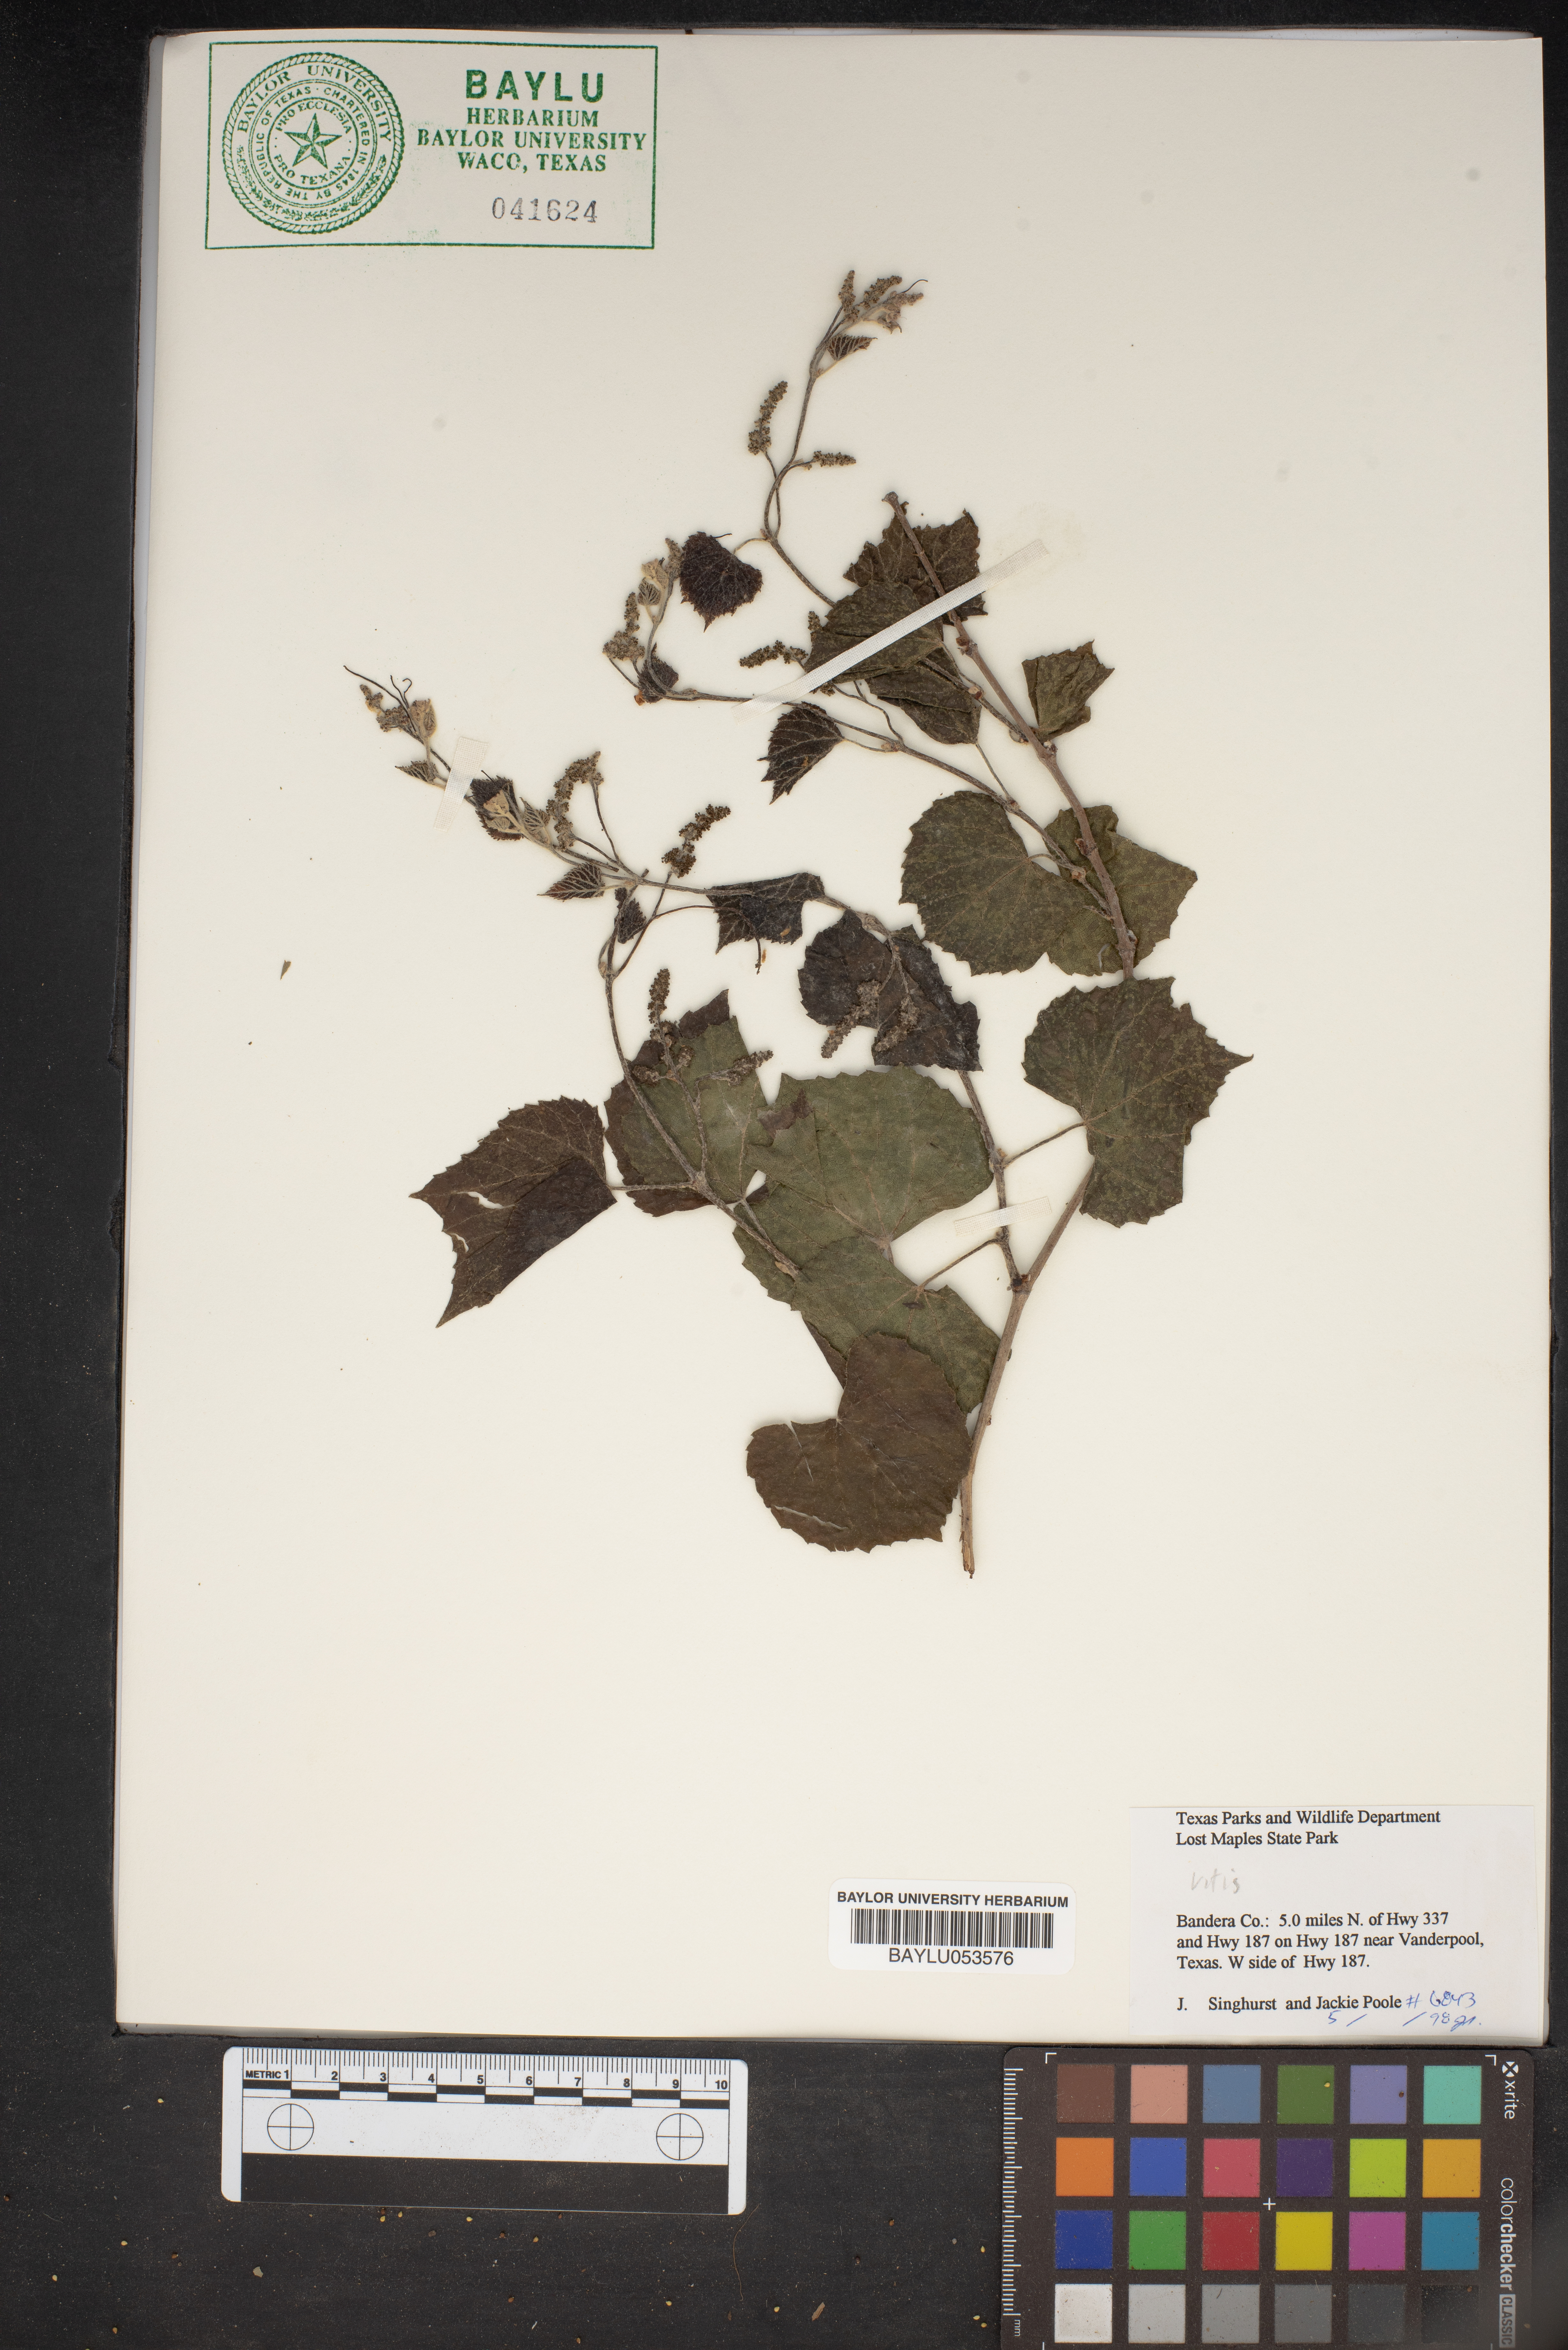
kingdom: Plantae
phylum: Tracheophyta
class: Magnoliopsida
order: Vitales
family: Vitaceae
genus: Vitis
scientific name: Vitis
